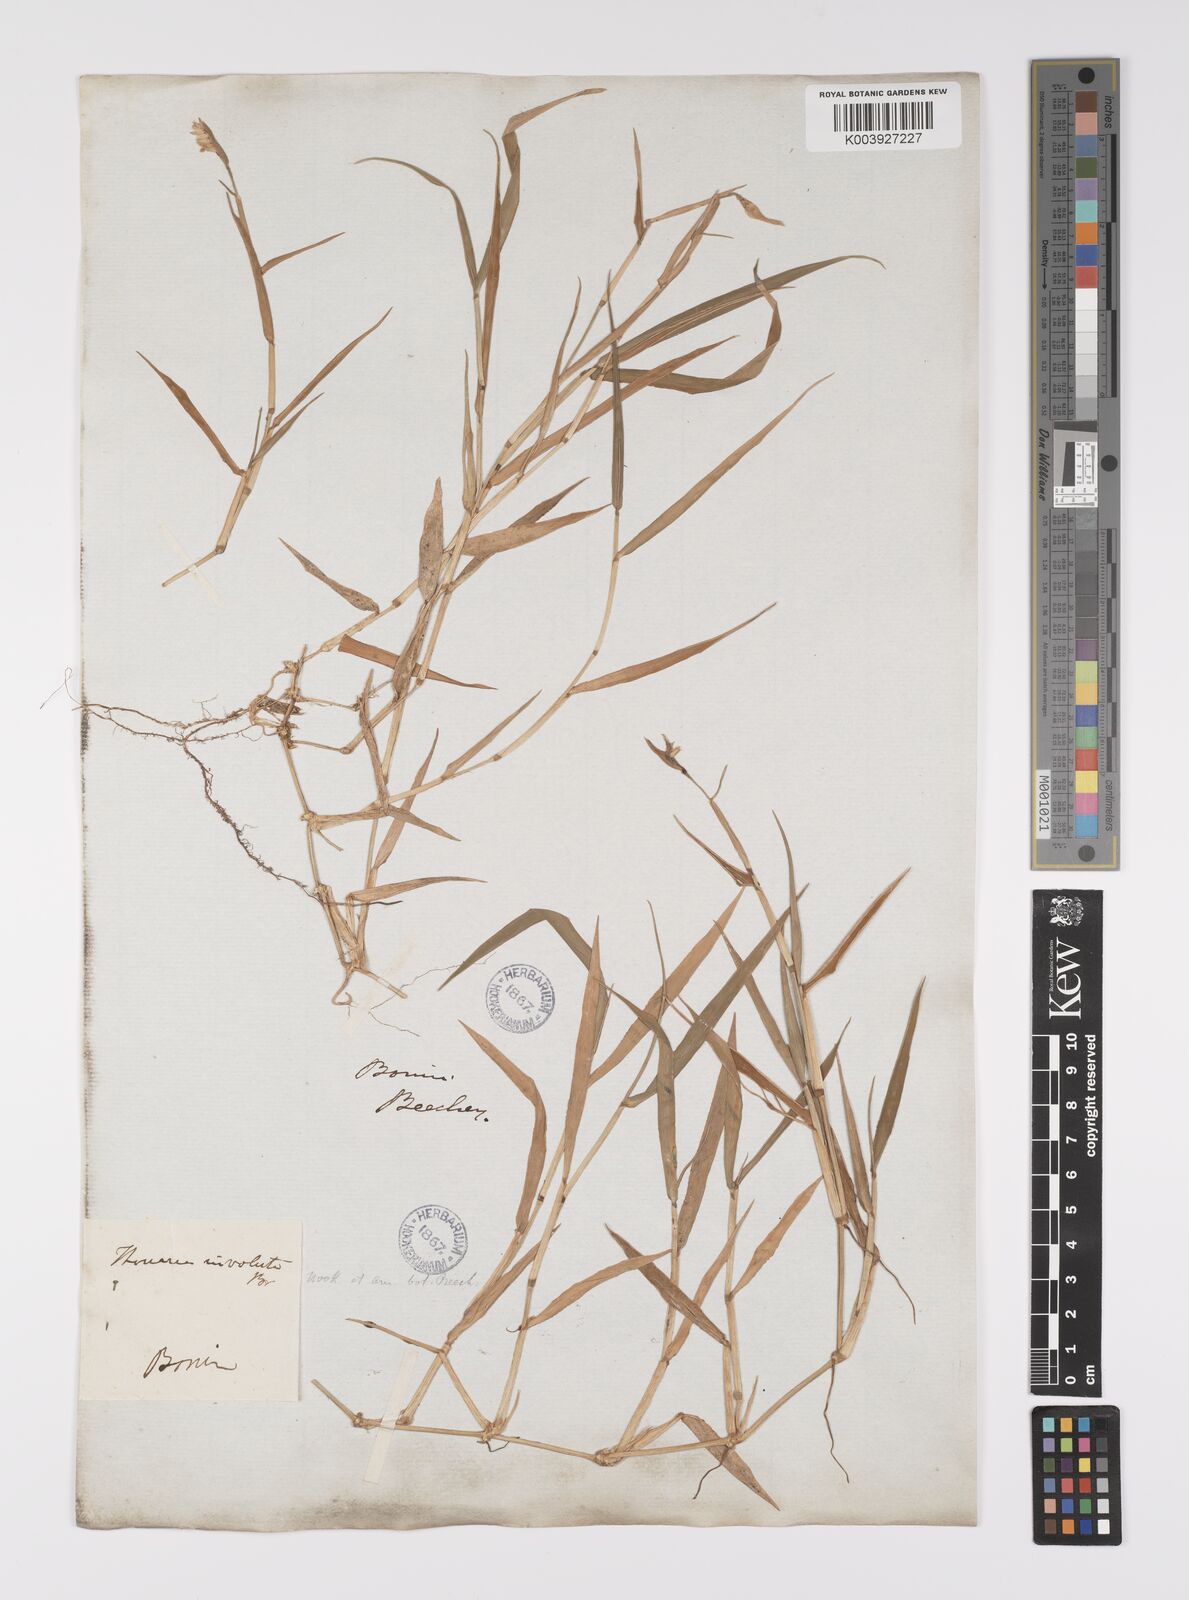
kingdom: Plantae
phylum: Tracheophyta
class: Liliopsida
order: Poales
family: Poaceae
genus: Thuarea
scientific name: Thuarea involuta
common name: Tropical beach grass
